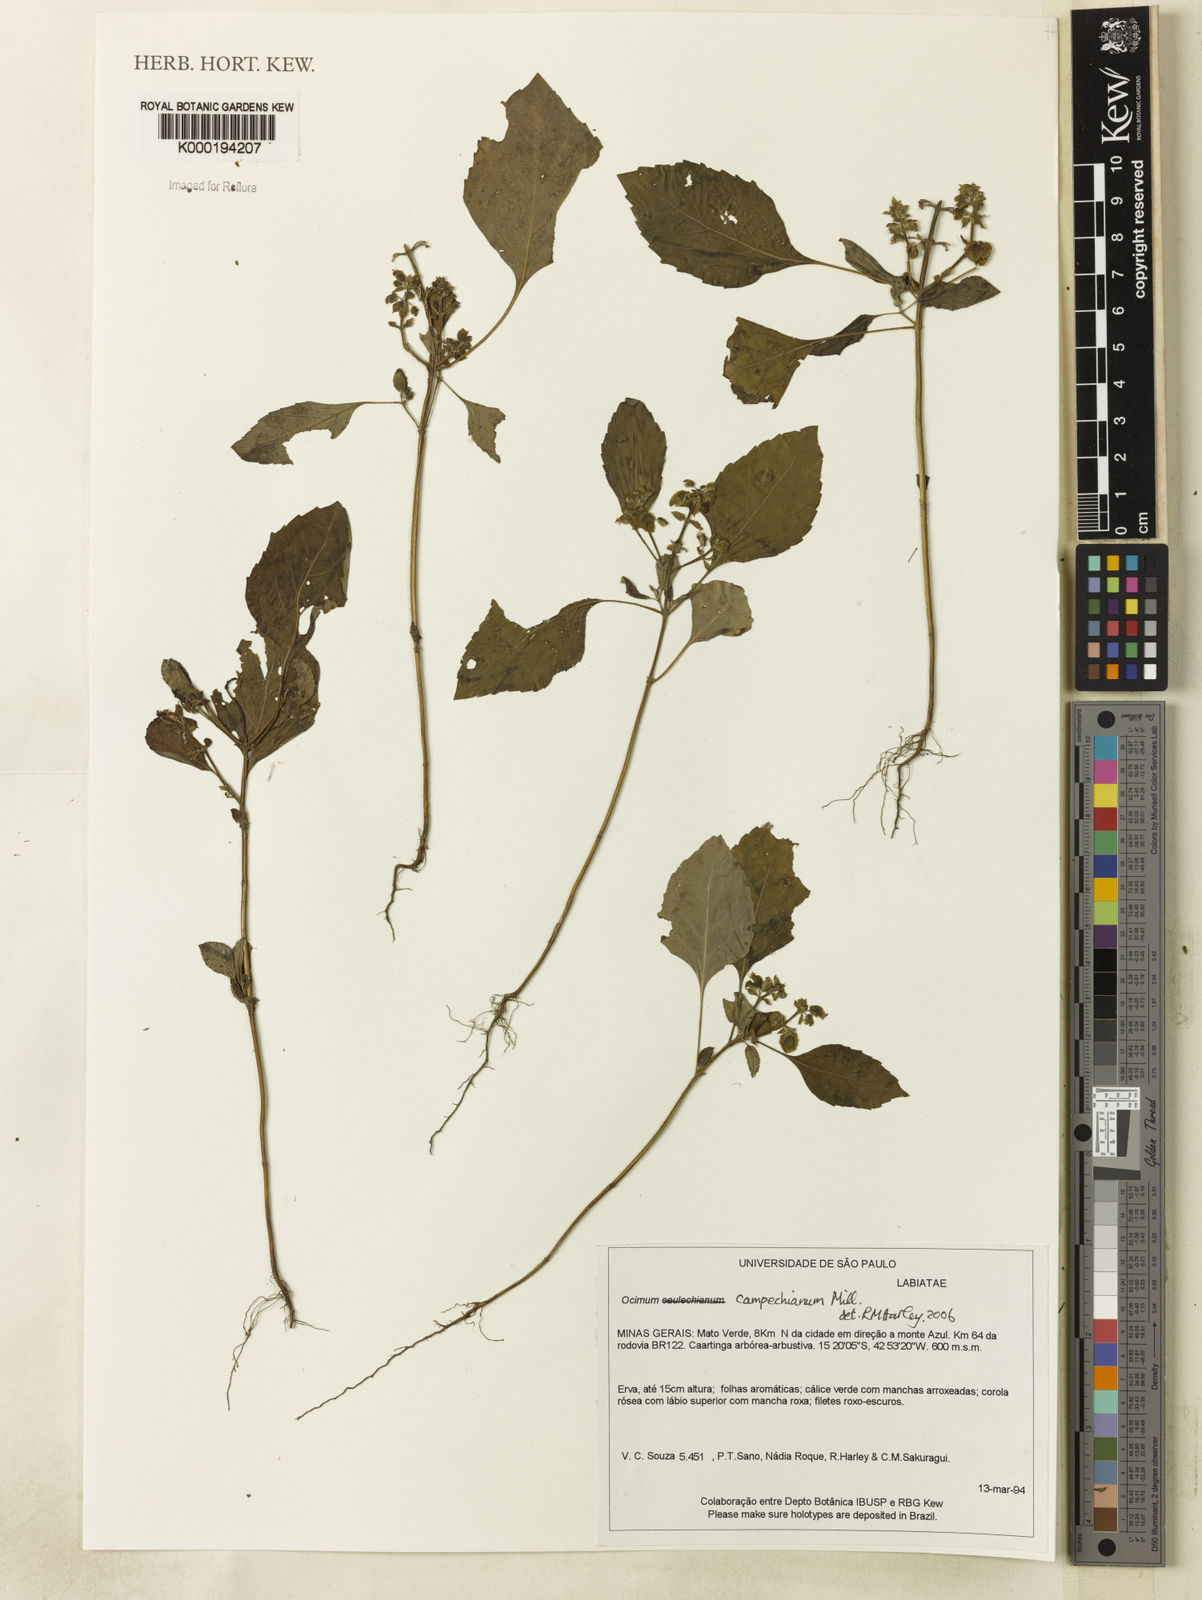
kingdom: Plantae
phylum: Tracheophyta
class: Magnoliopsida
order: Lamiales
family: Lamiaceae
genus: Ocimum
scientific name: Ocimum campechianum
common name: Mosquito basil
